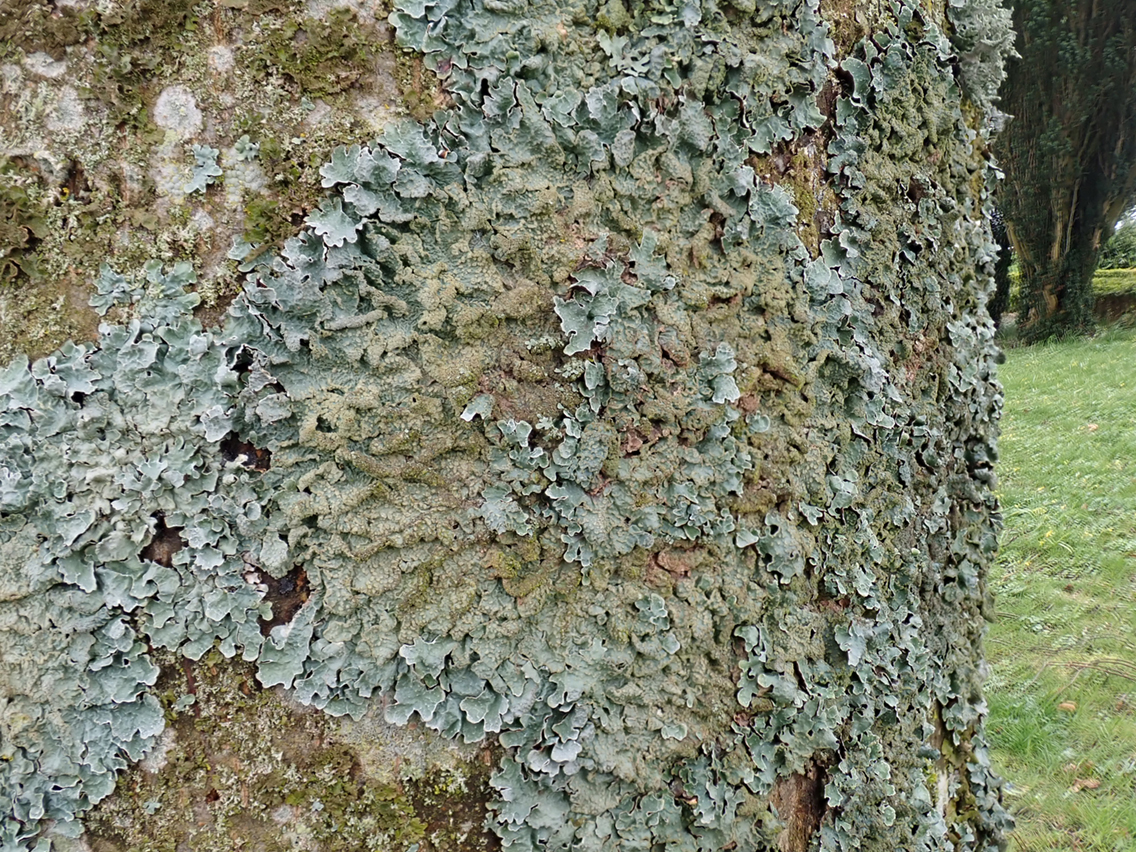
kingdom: Fungi
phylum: Ascomycota
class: Lecanoromycetes
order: Lecanorales
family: Parmeliaceae
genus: Parmelia
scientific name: Parmelia sulcata
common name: rynket skållav
